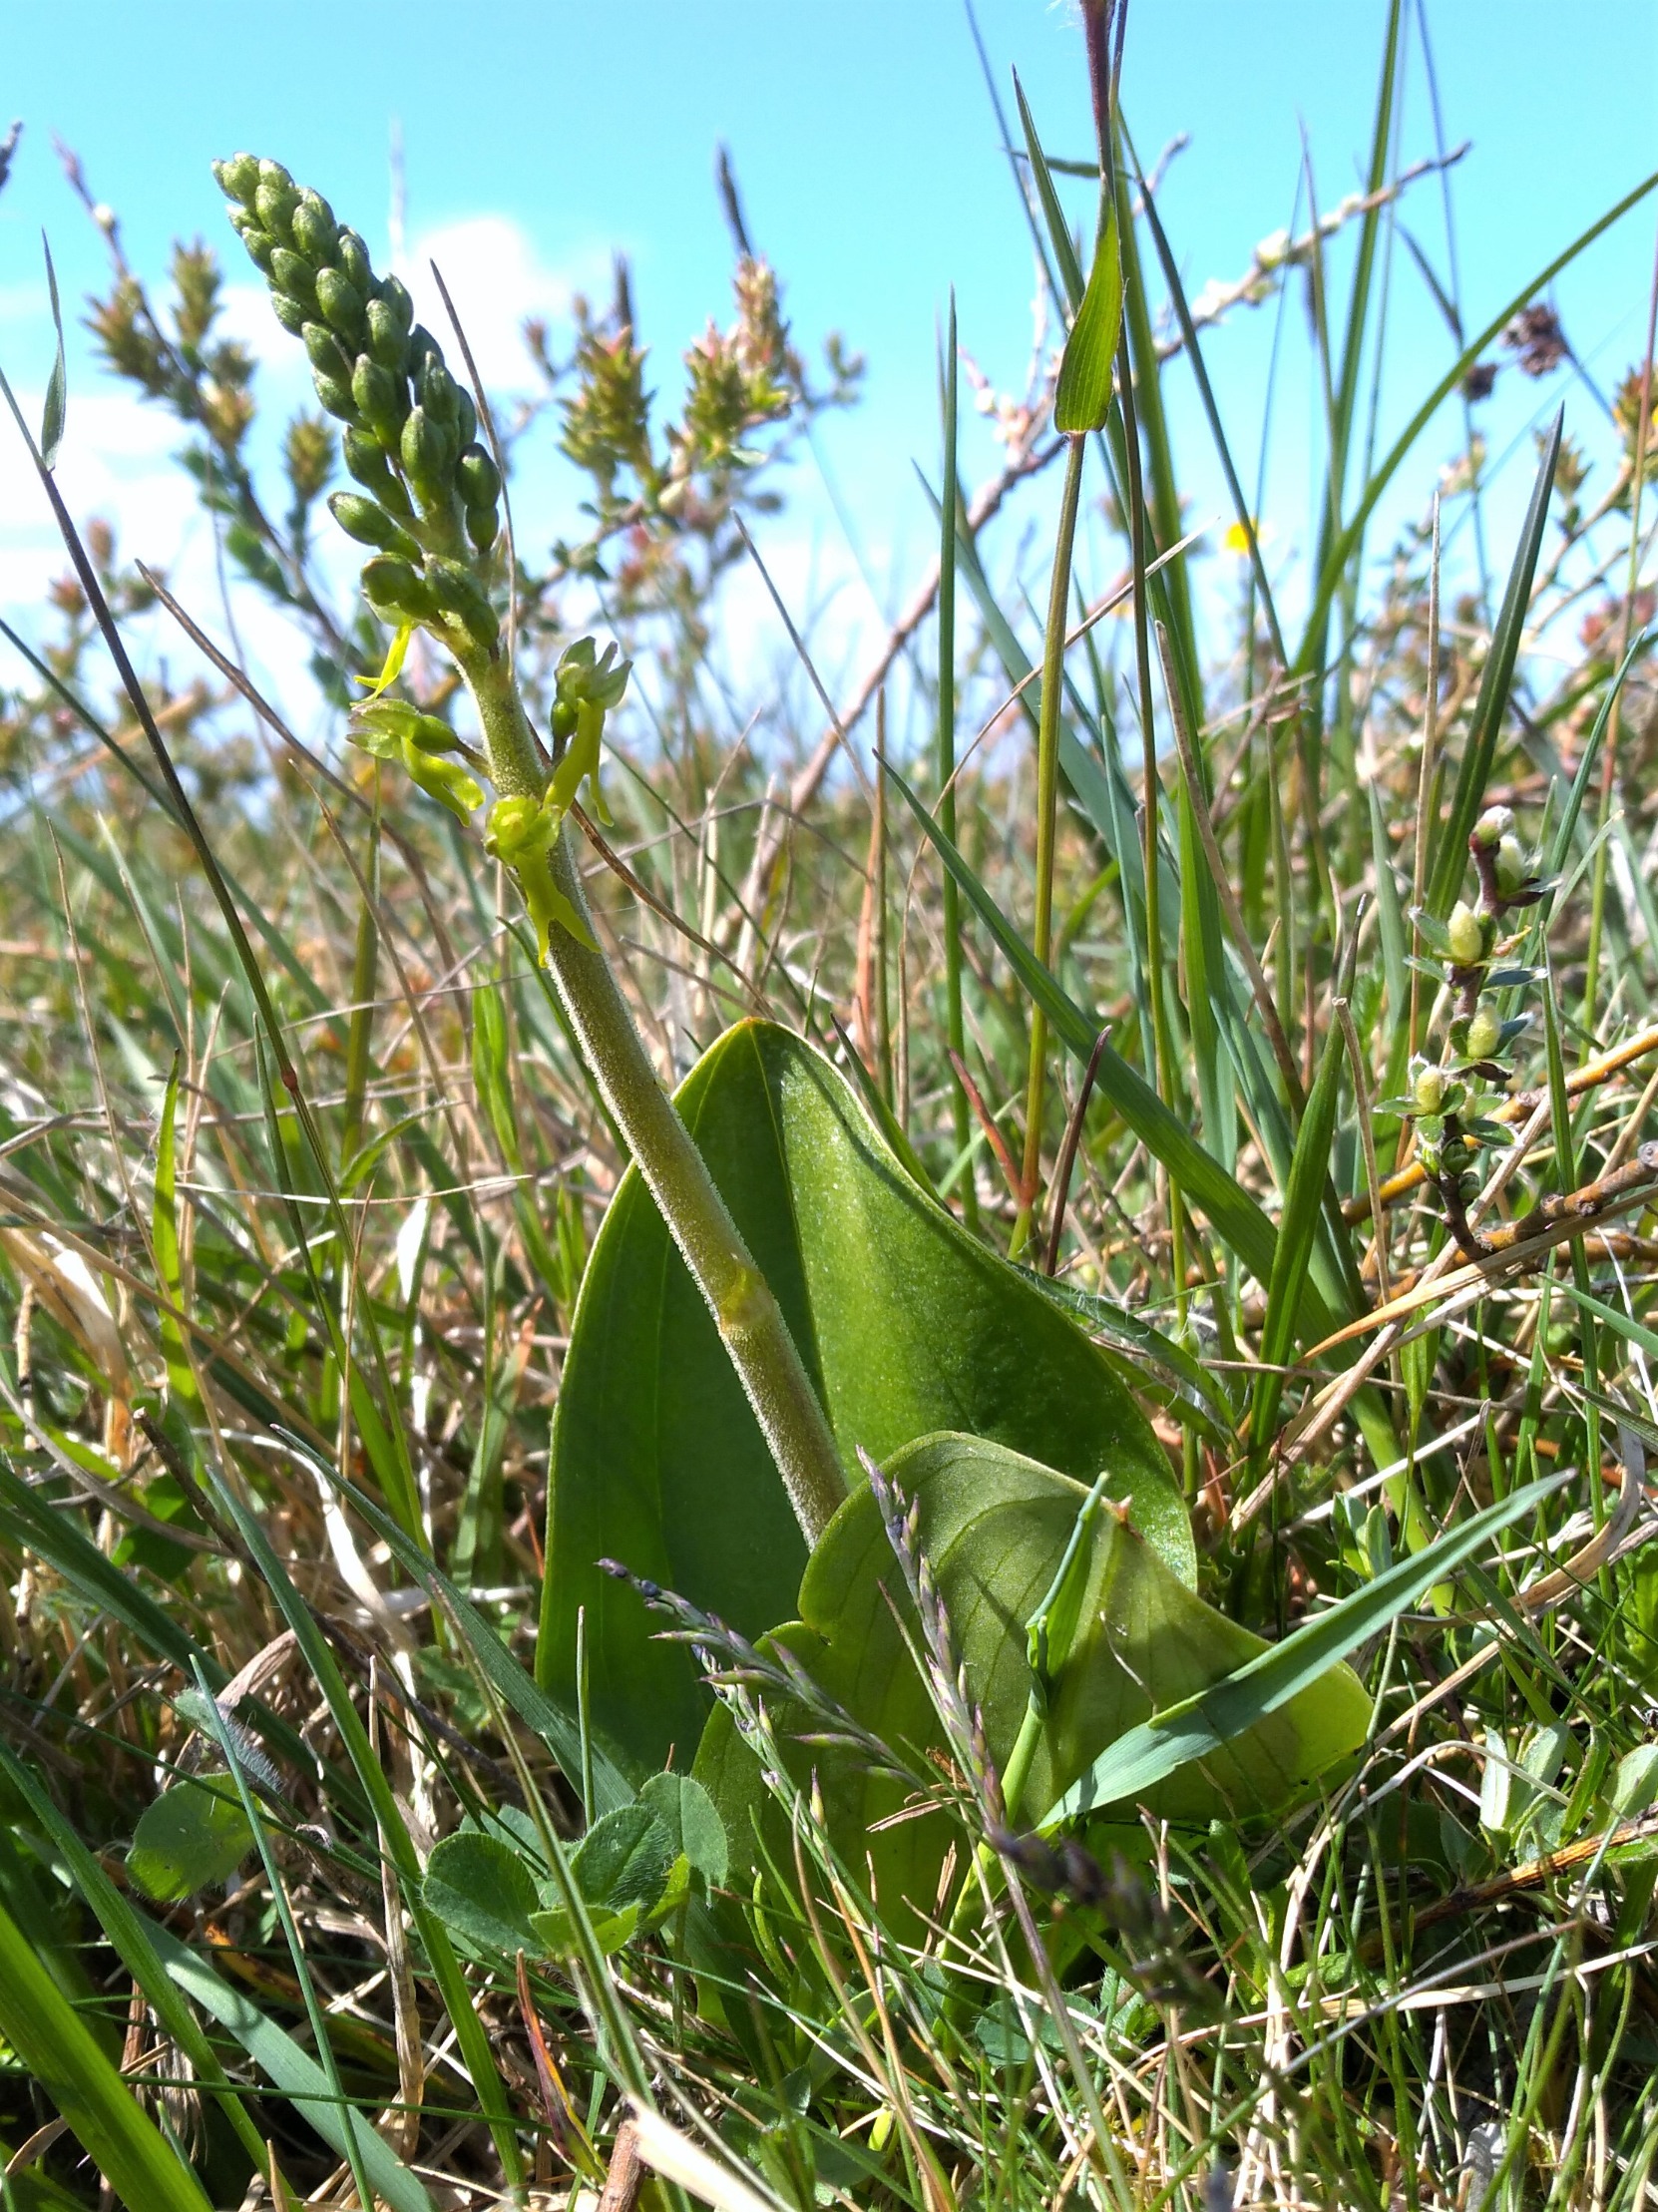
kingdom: Plantae
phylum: Tracheophyta
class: Liliopsida
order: Asparagales
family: Orchidaceae
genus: Neottia
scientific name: Neottia ovata
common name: Ægbladet fliglæbe
